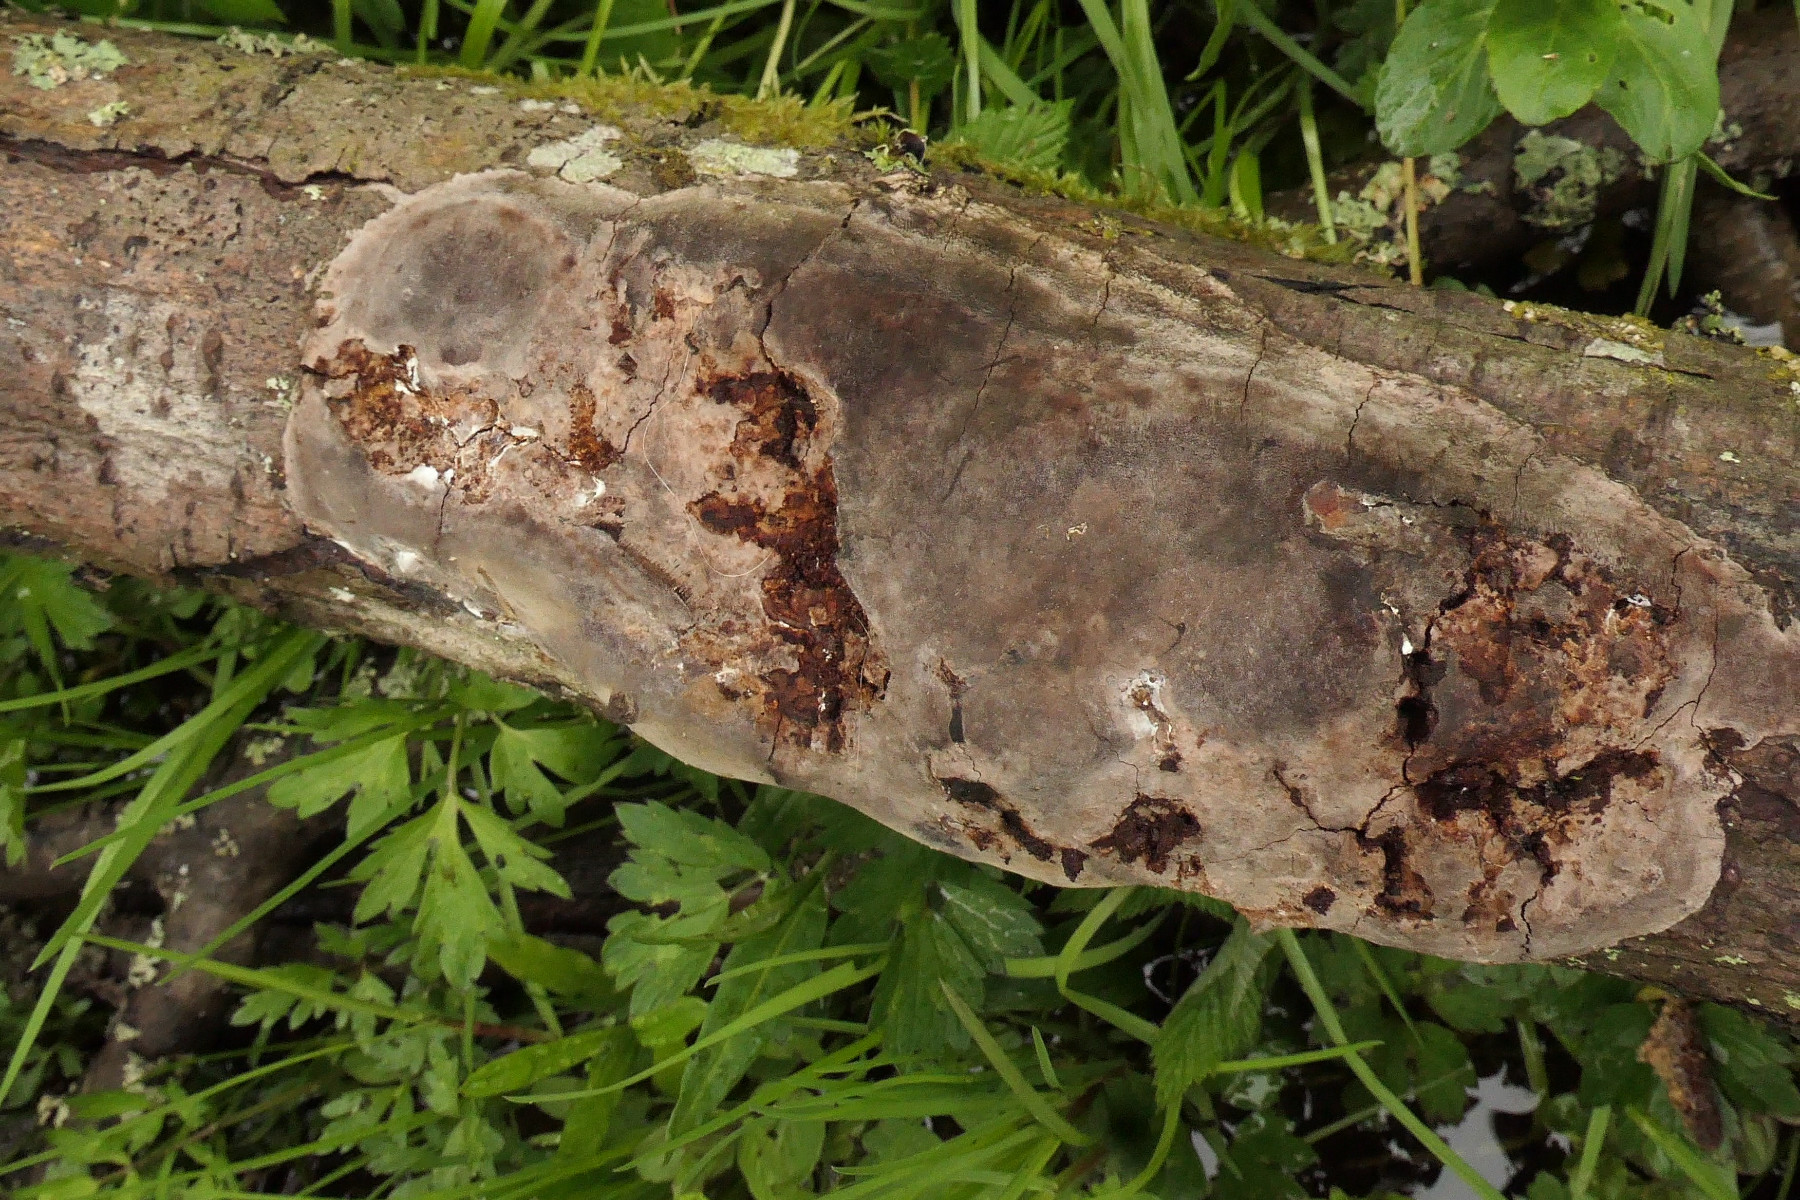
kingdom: Fungi
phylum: Basidiomycota
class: Agaricomycetes
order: Hymenochaetales
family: Hymenochaetaceae
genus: Fomitiporia
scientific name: Fomitiporia punctata
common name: pude-ildporesvamp
